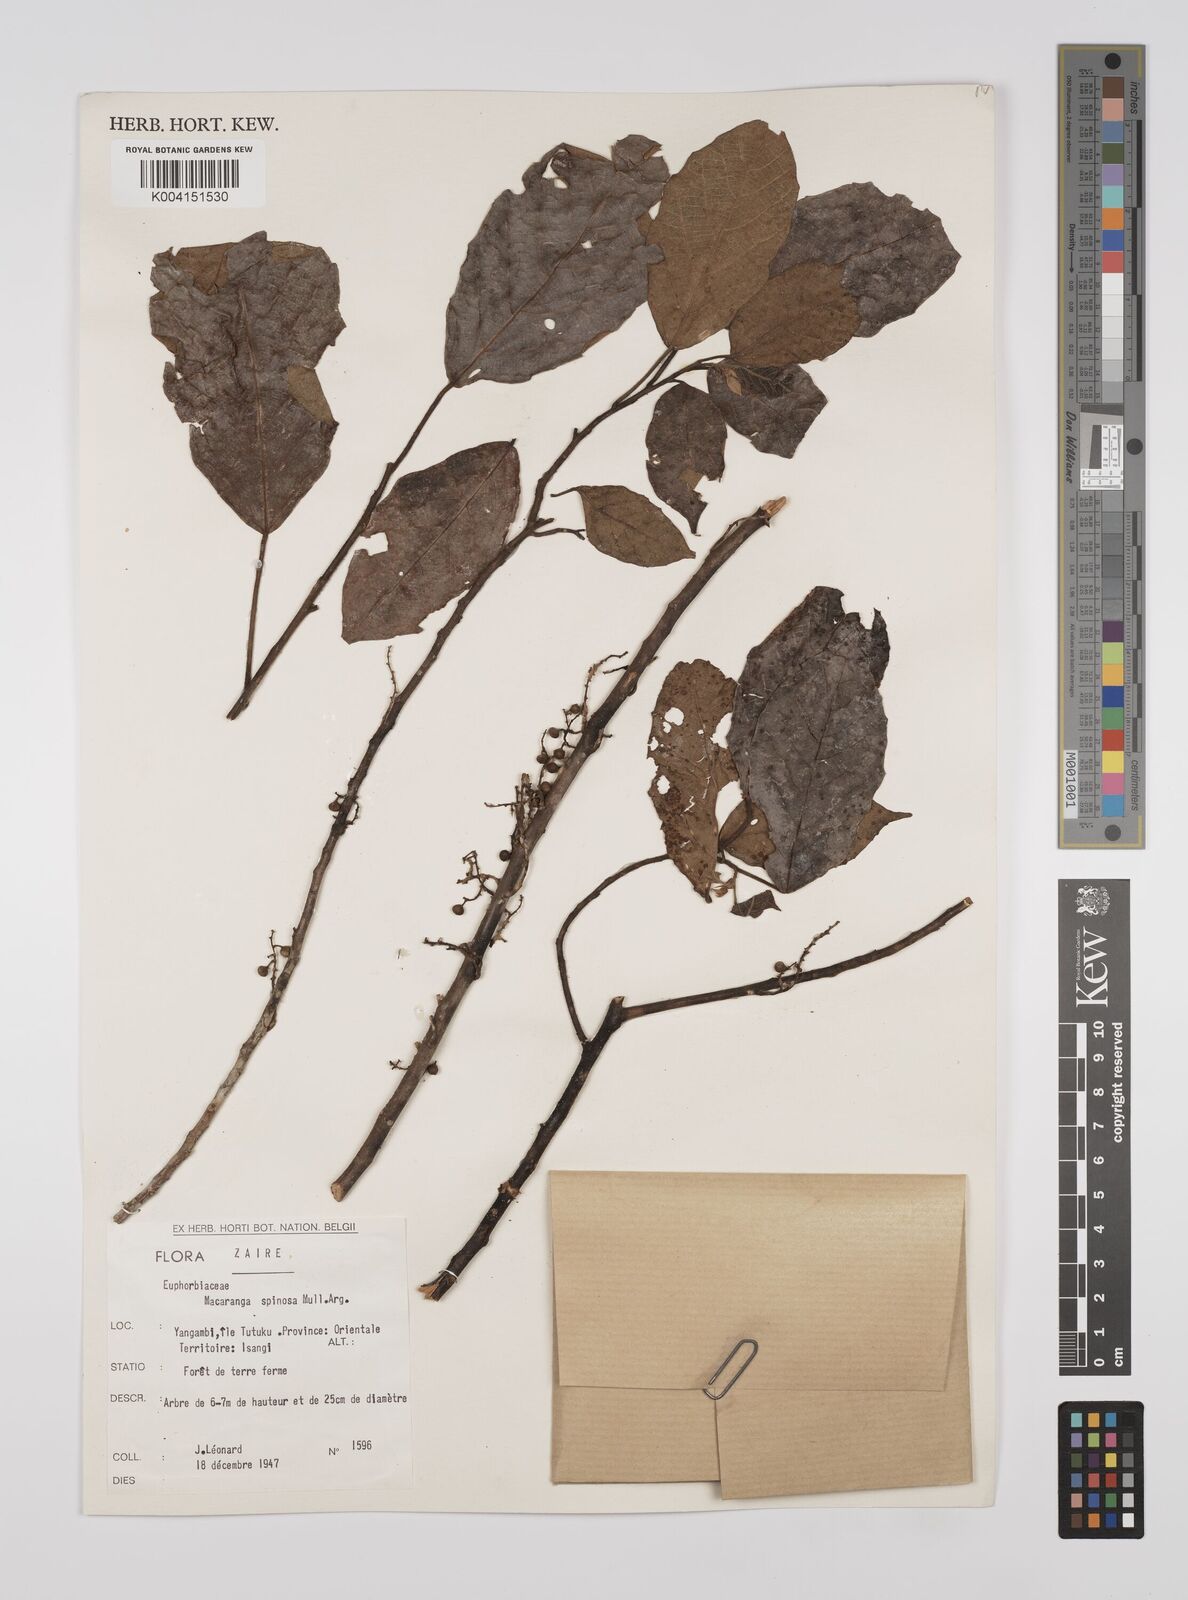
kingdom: Plantae
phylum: Tracheophyta
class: Magnoliopsida
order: Malpighiales
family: Euphorbiaceae
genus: Macaranga
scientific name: Macaranga spinosa
